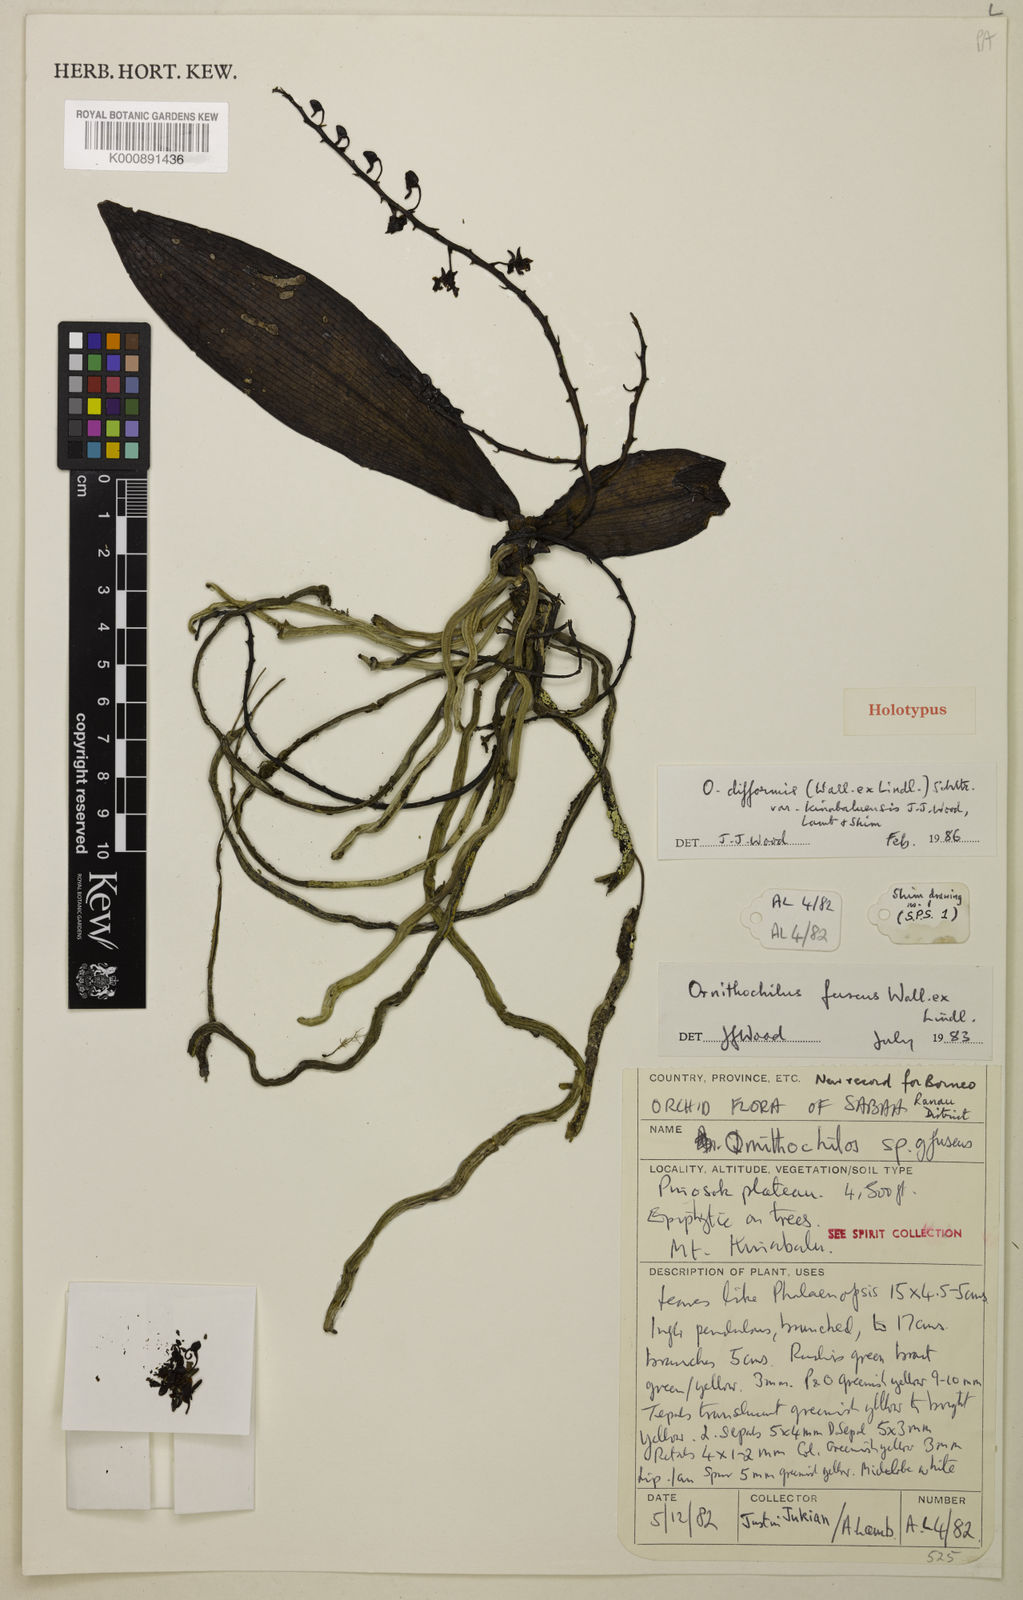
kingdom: Plantae
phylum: Tracheophyta
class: Liliopsida
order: Asparagales
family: Orchidaceae
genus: Phalaenopsis
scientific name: Phalaenopsis difformis
